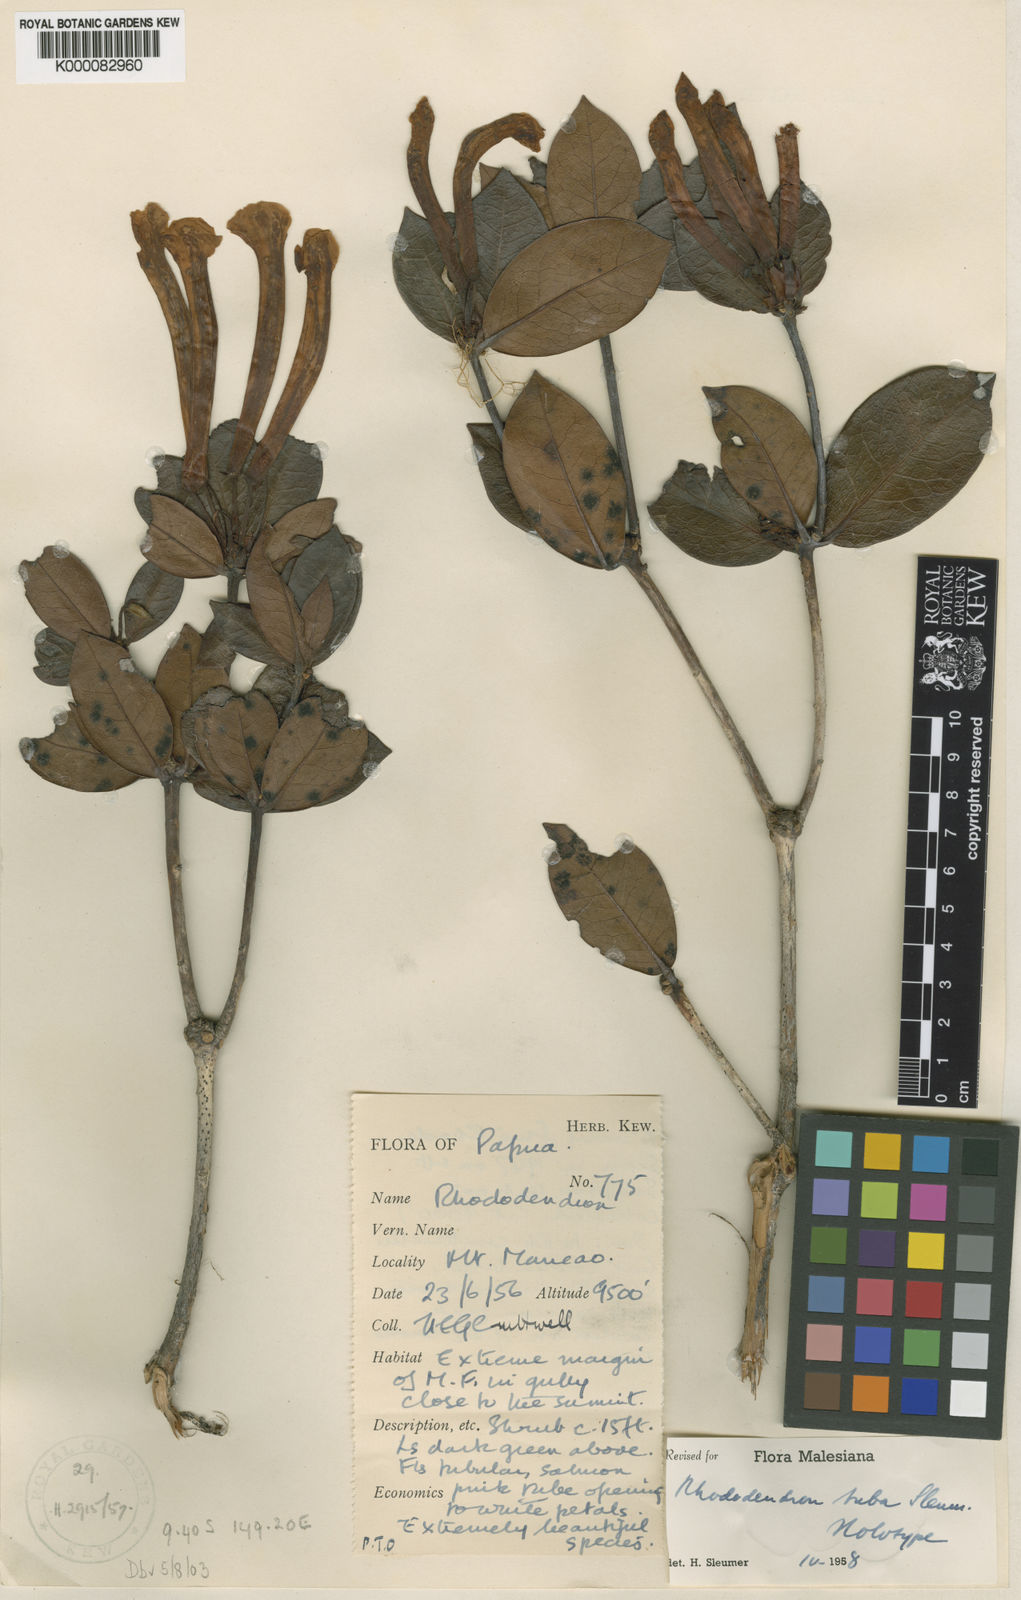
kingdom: Plantae
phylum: Tracheophyta
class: Magnoliopsida
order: Ericales
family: Ericaceae
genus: Rhododendron
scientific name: Rhododendron tuba
